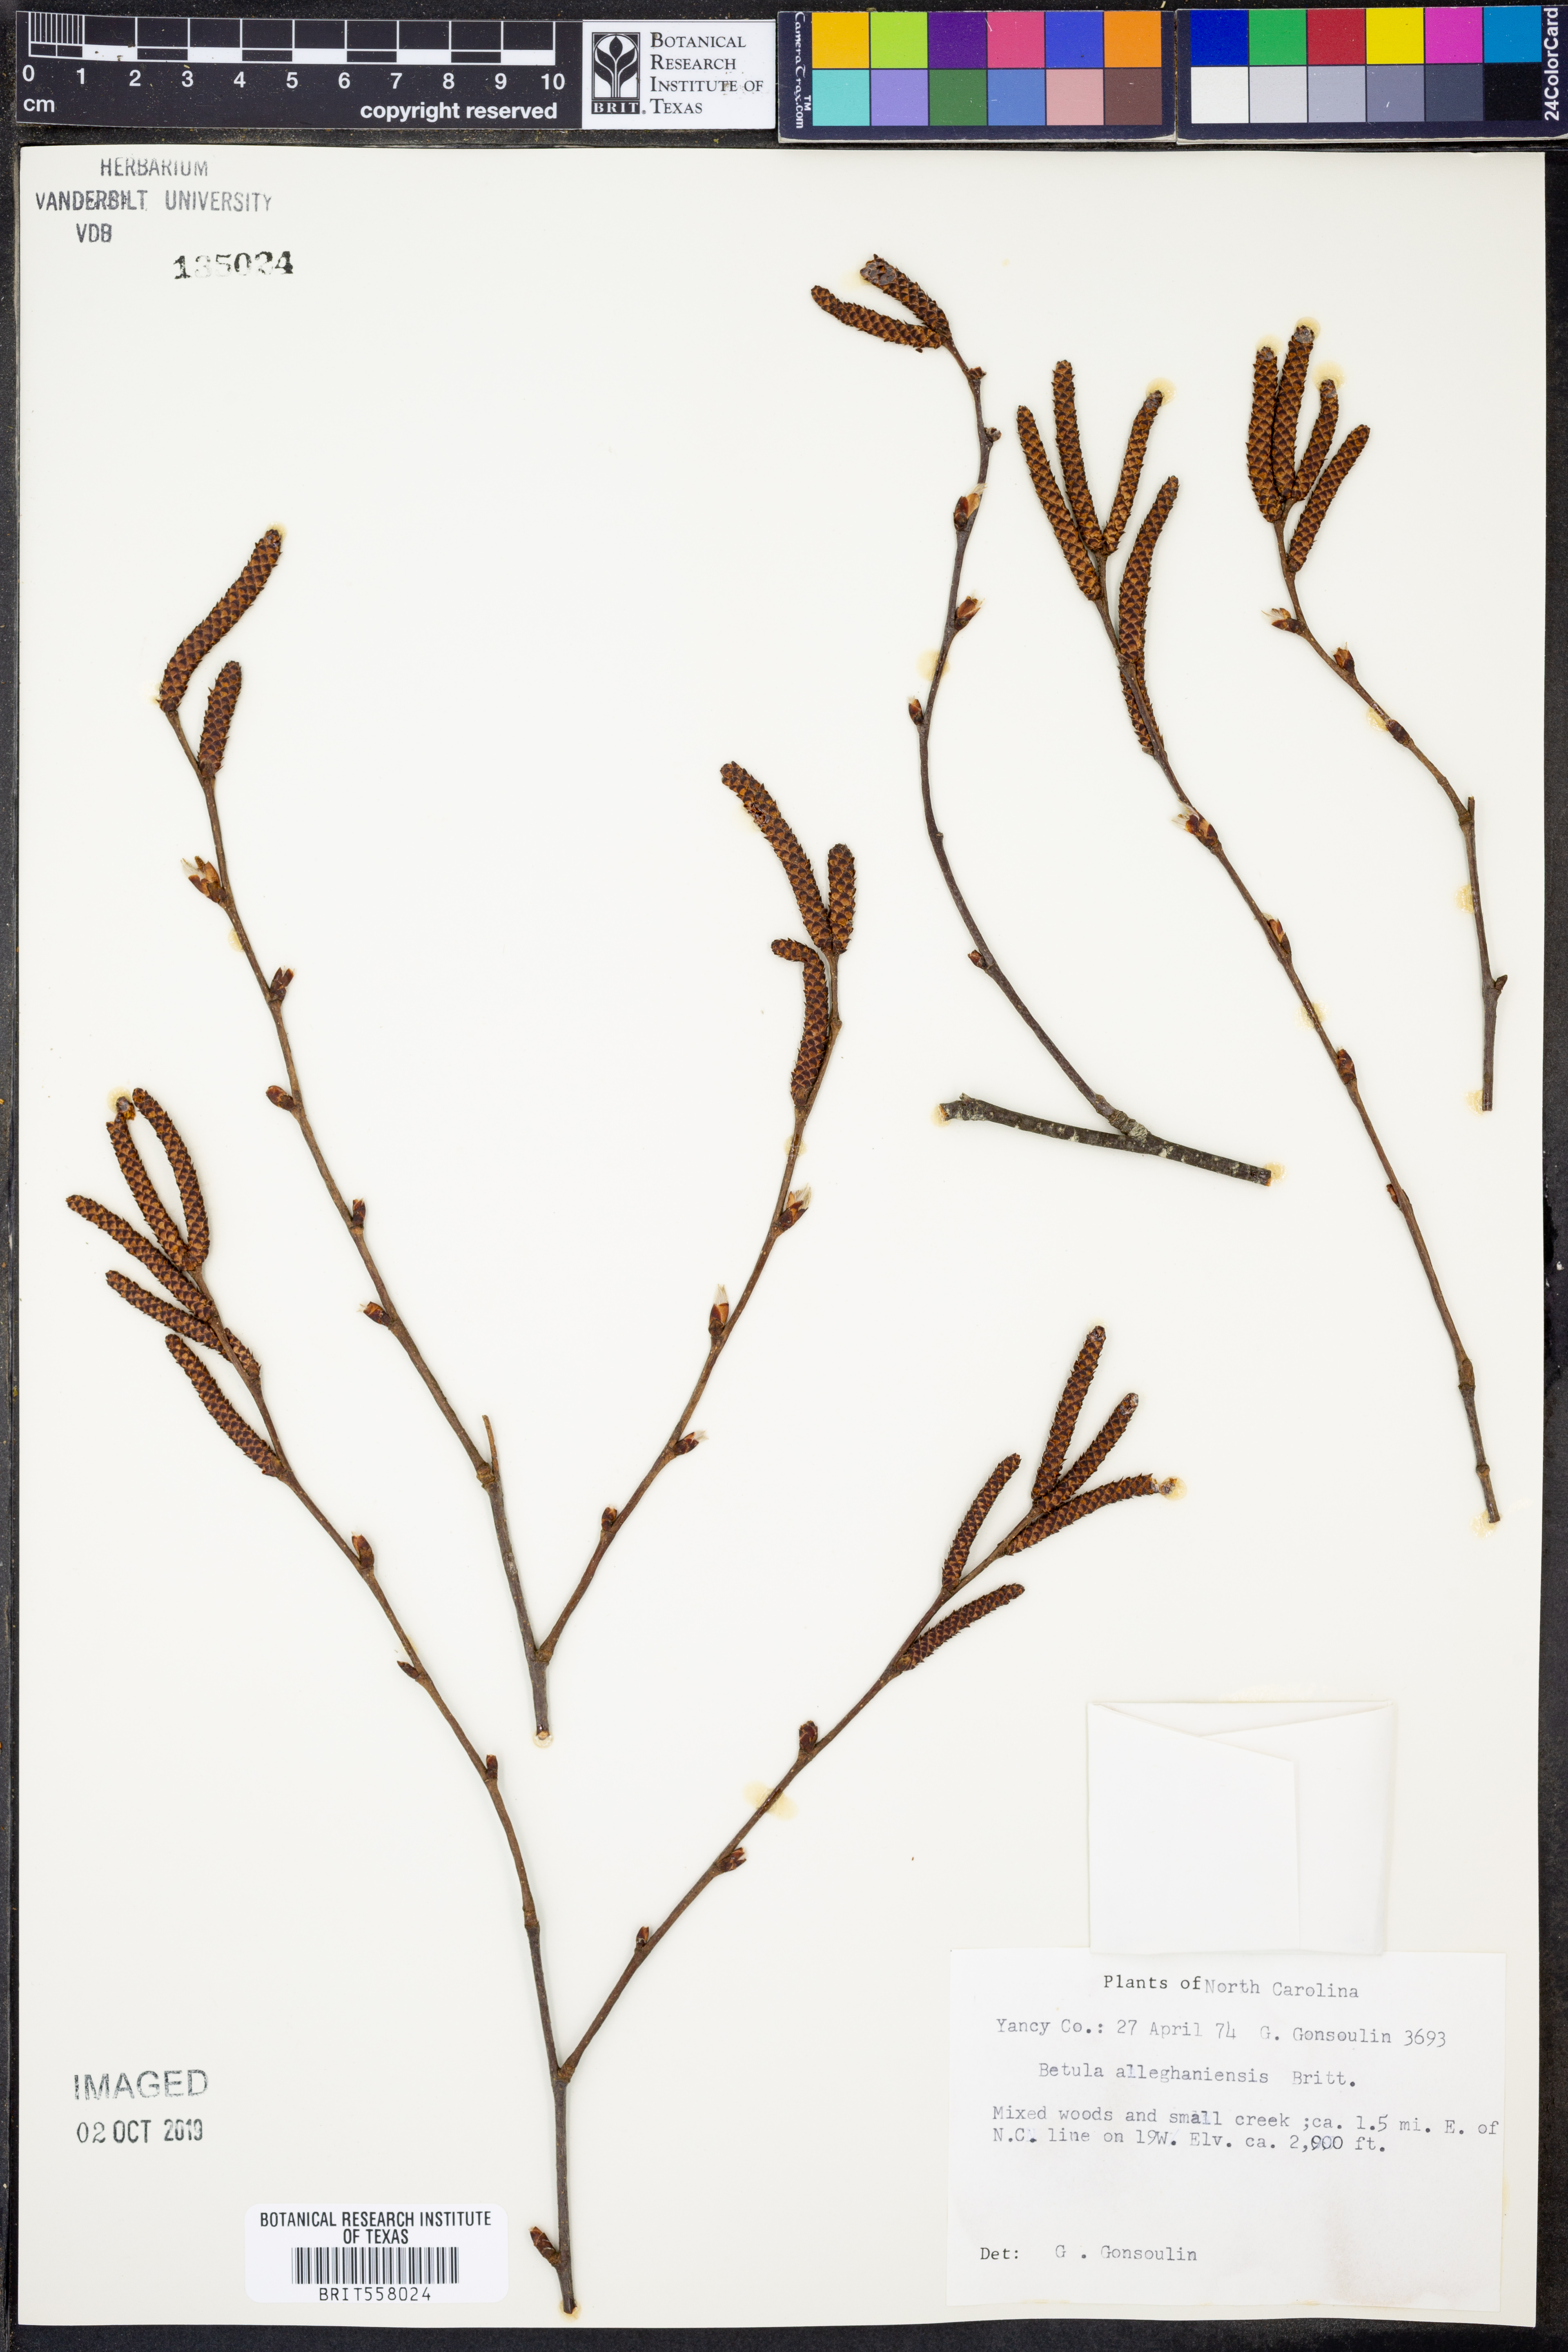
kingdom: Plantae
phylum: Tracheophyta
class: Magnoliopsida
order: Fagales
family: Betulaceae
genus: Betula
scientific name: Betula alleghaniensis
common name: Yellow birch
